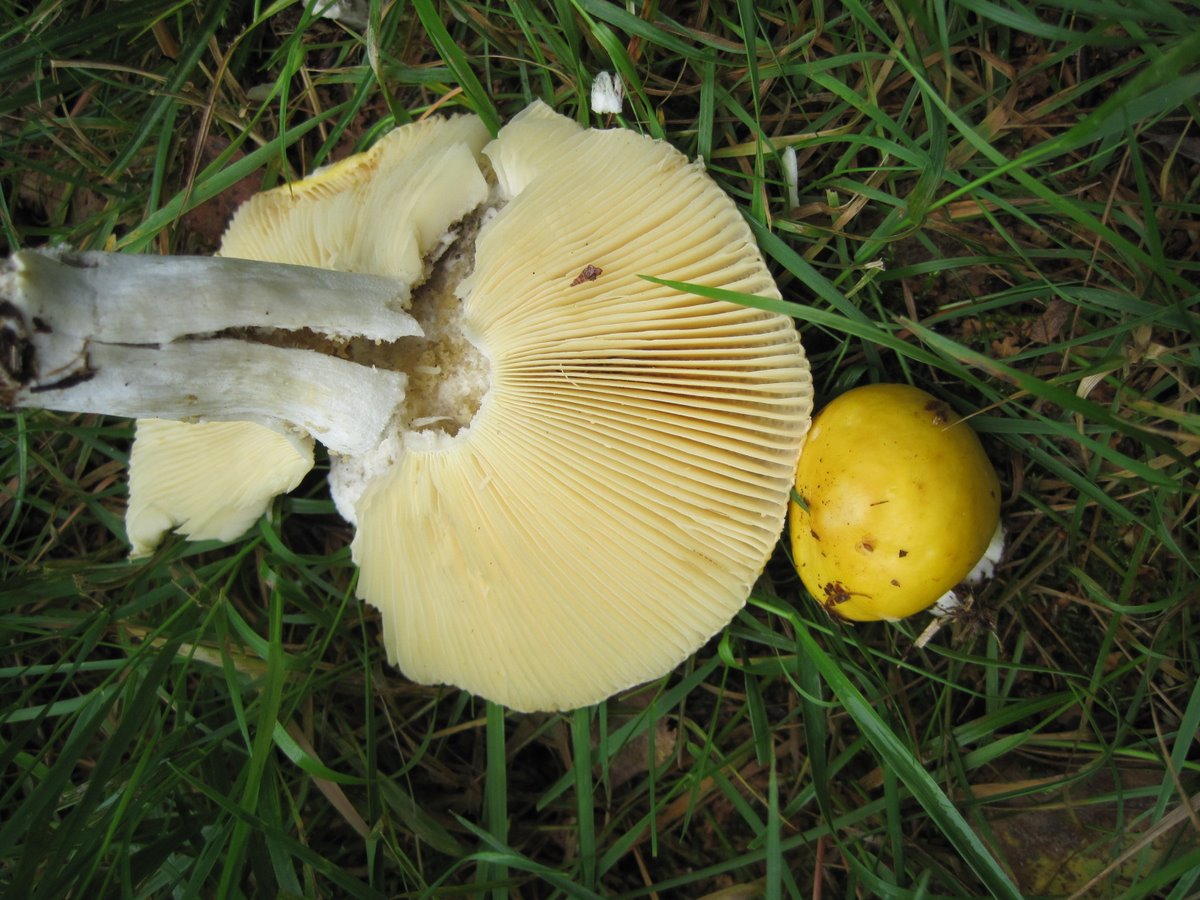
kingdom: Fungi
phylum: Basidiomycota
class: Agaricomycetes
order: Russulales
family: Russulaceae
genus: Russula
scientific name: Russula solaris
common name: sol-skørhat
